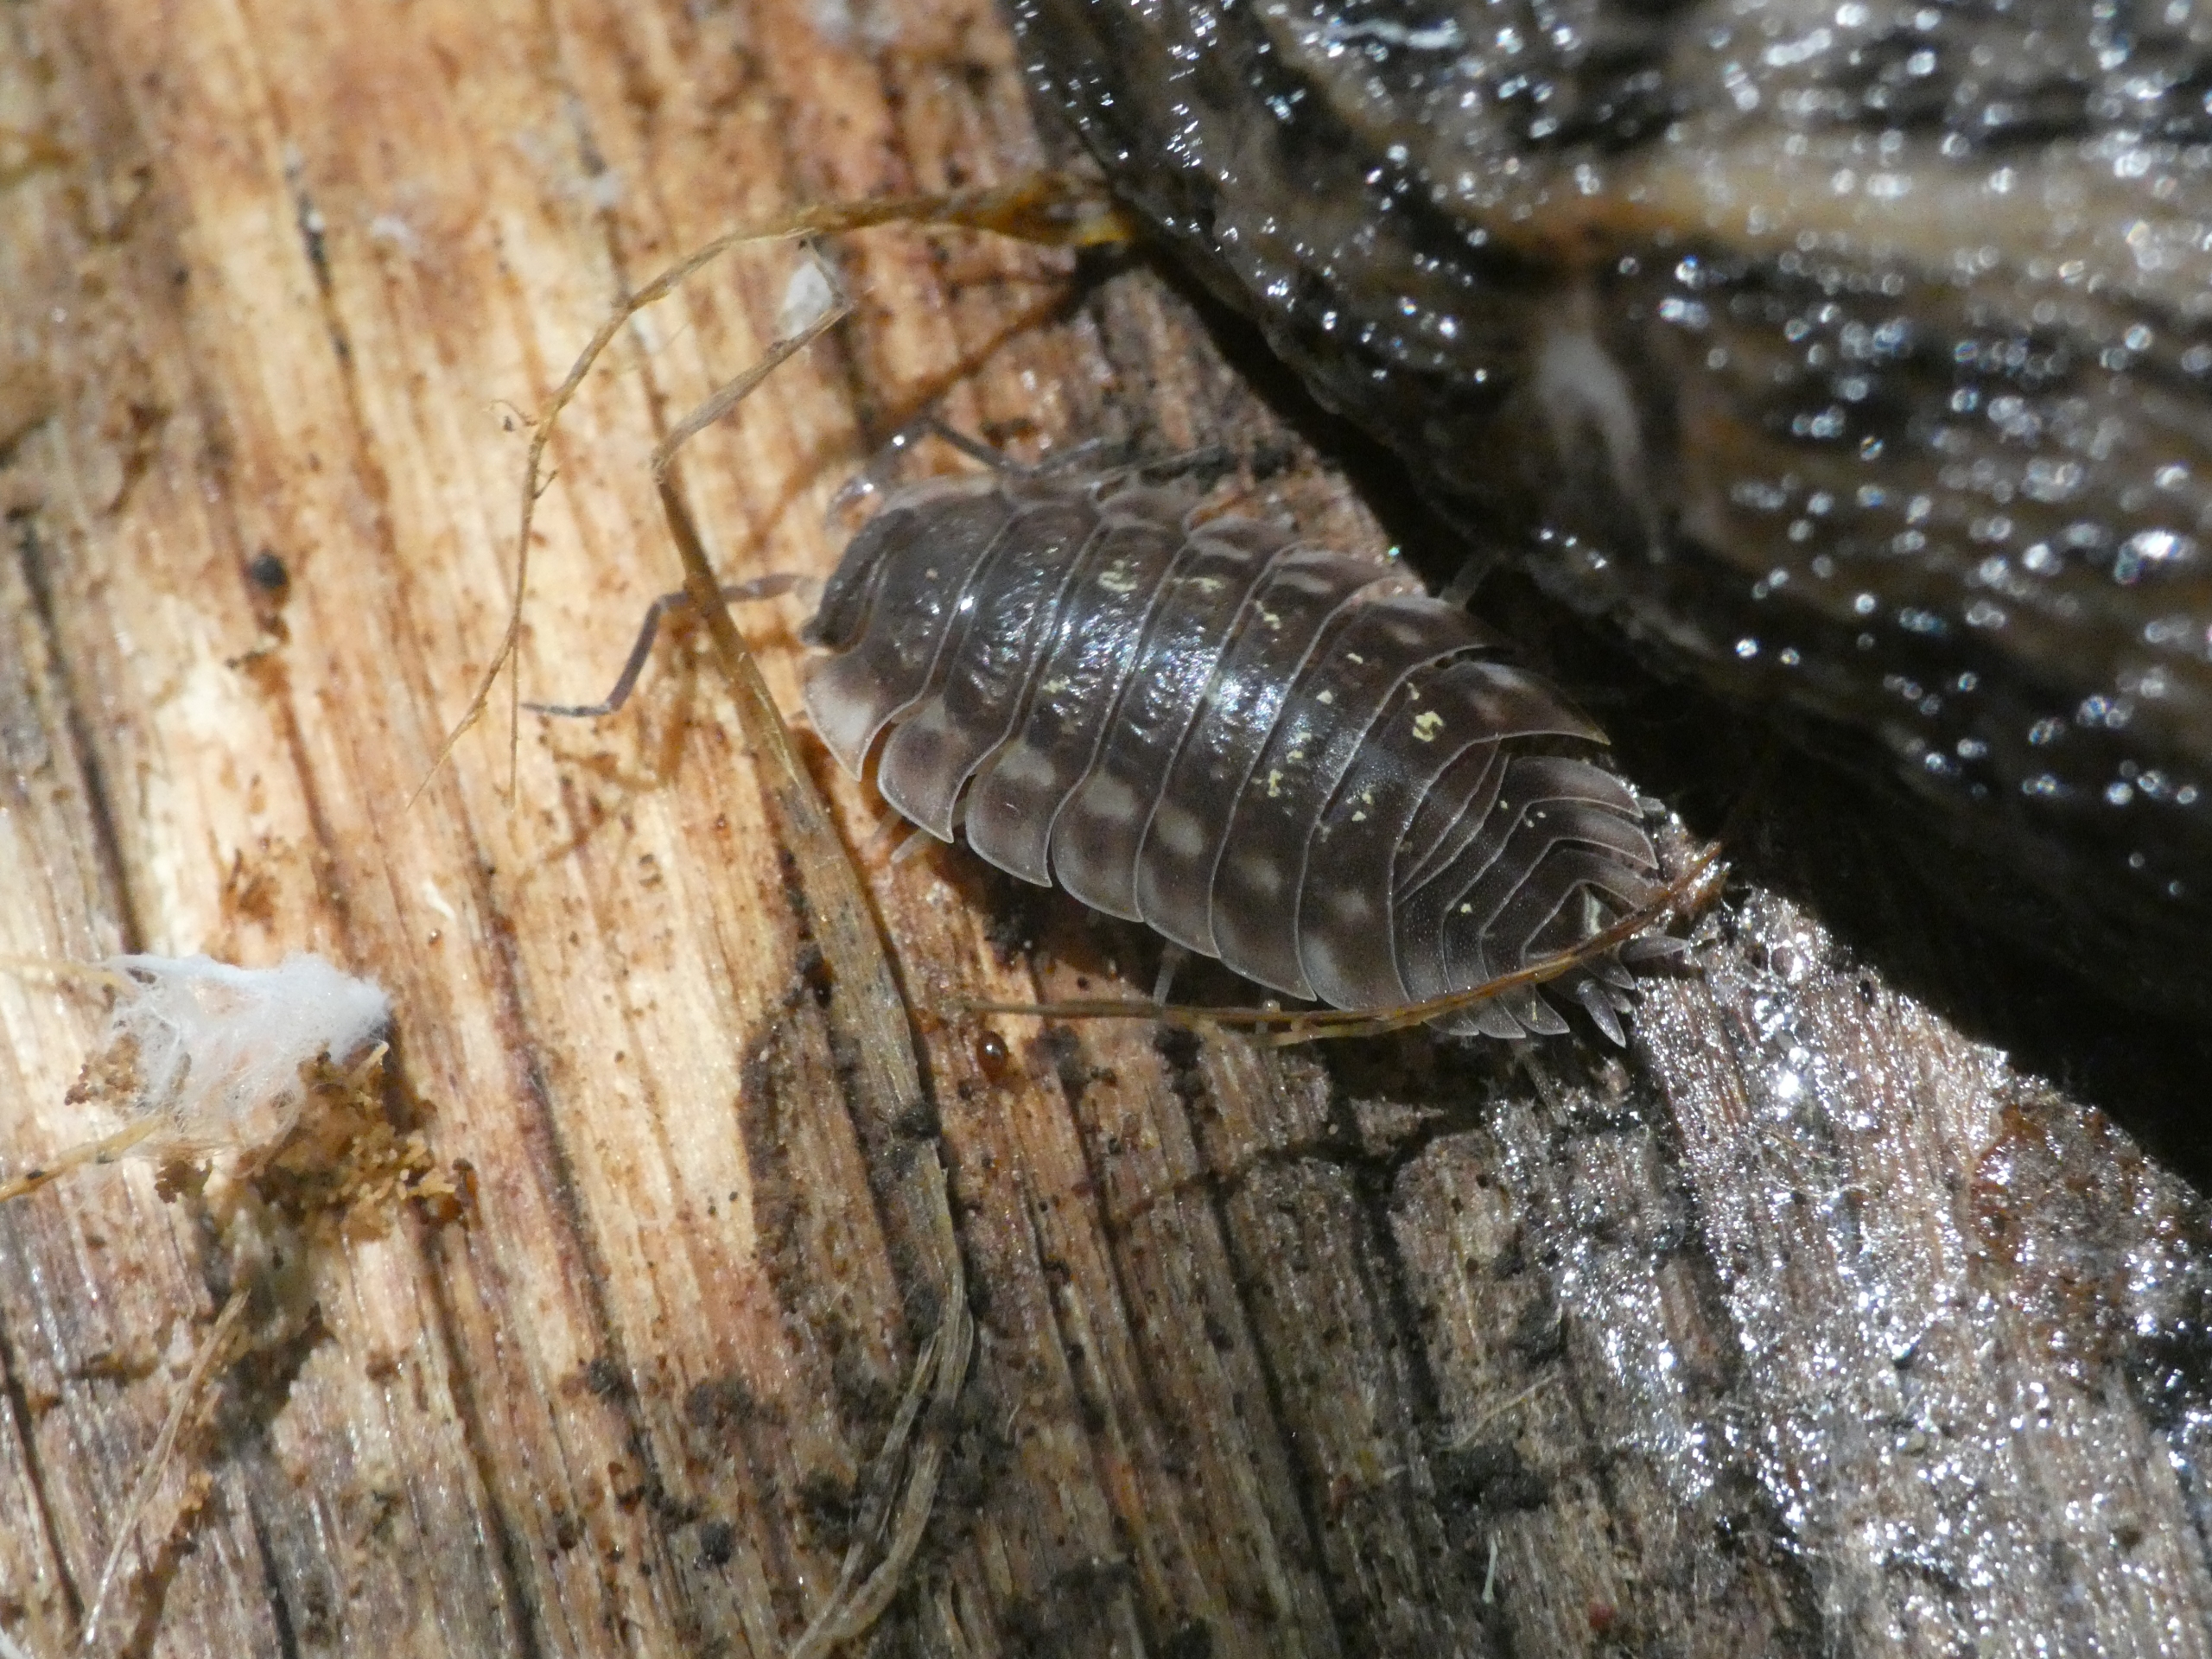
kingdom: Animalia
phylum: Arthropoda
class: Malacostraca
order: Isopoda
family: Oniscidae
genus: Oniscus
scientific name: Oniscus asellus
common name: Glat bænkebider
